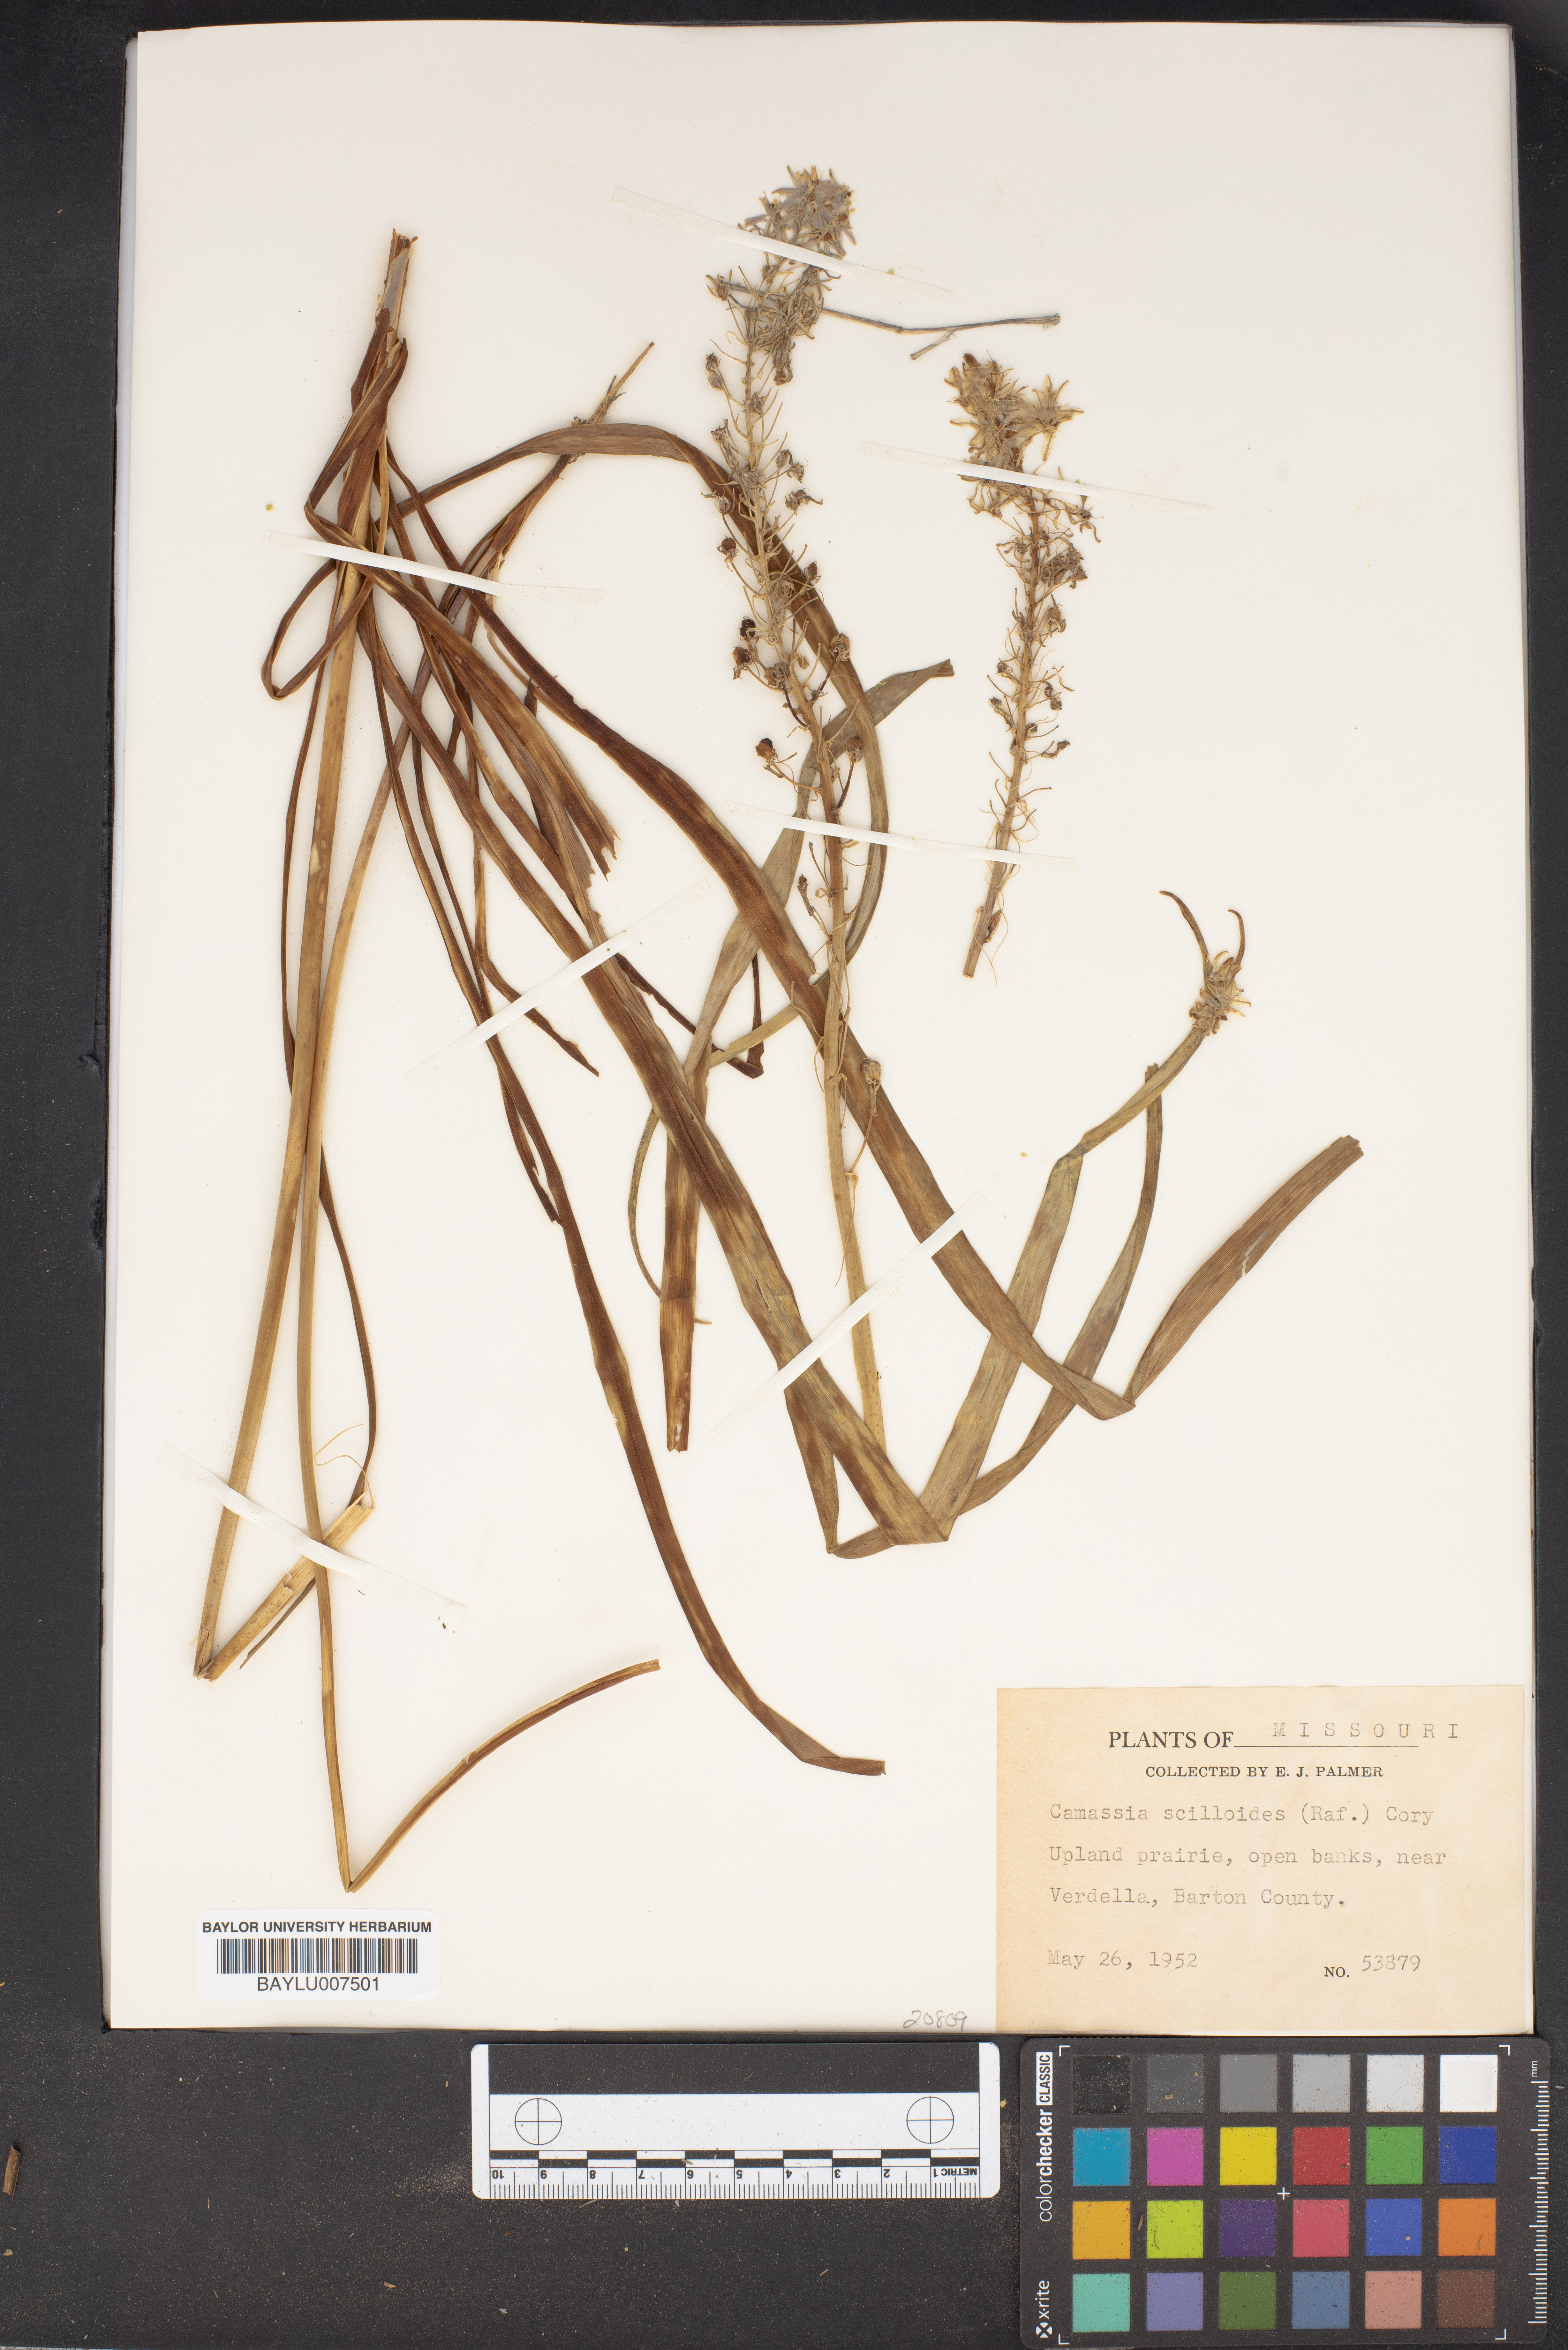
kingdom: Plantae
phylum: Tracheophyta
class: Liliopsida
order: Asparagales
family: Asparagaceae
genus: Camassia
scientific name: Camassia scilloides
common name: Wild hyacinth
